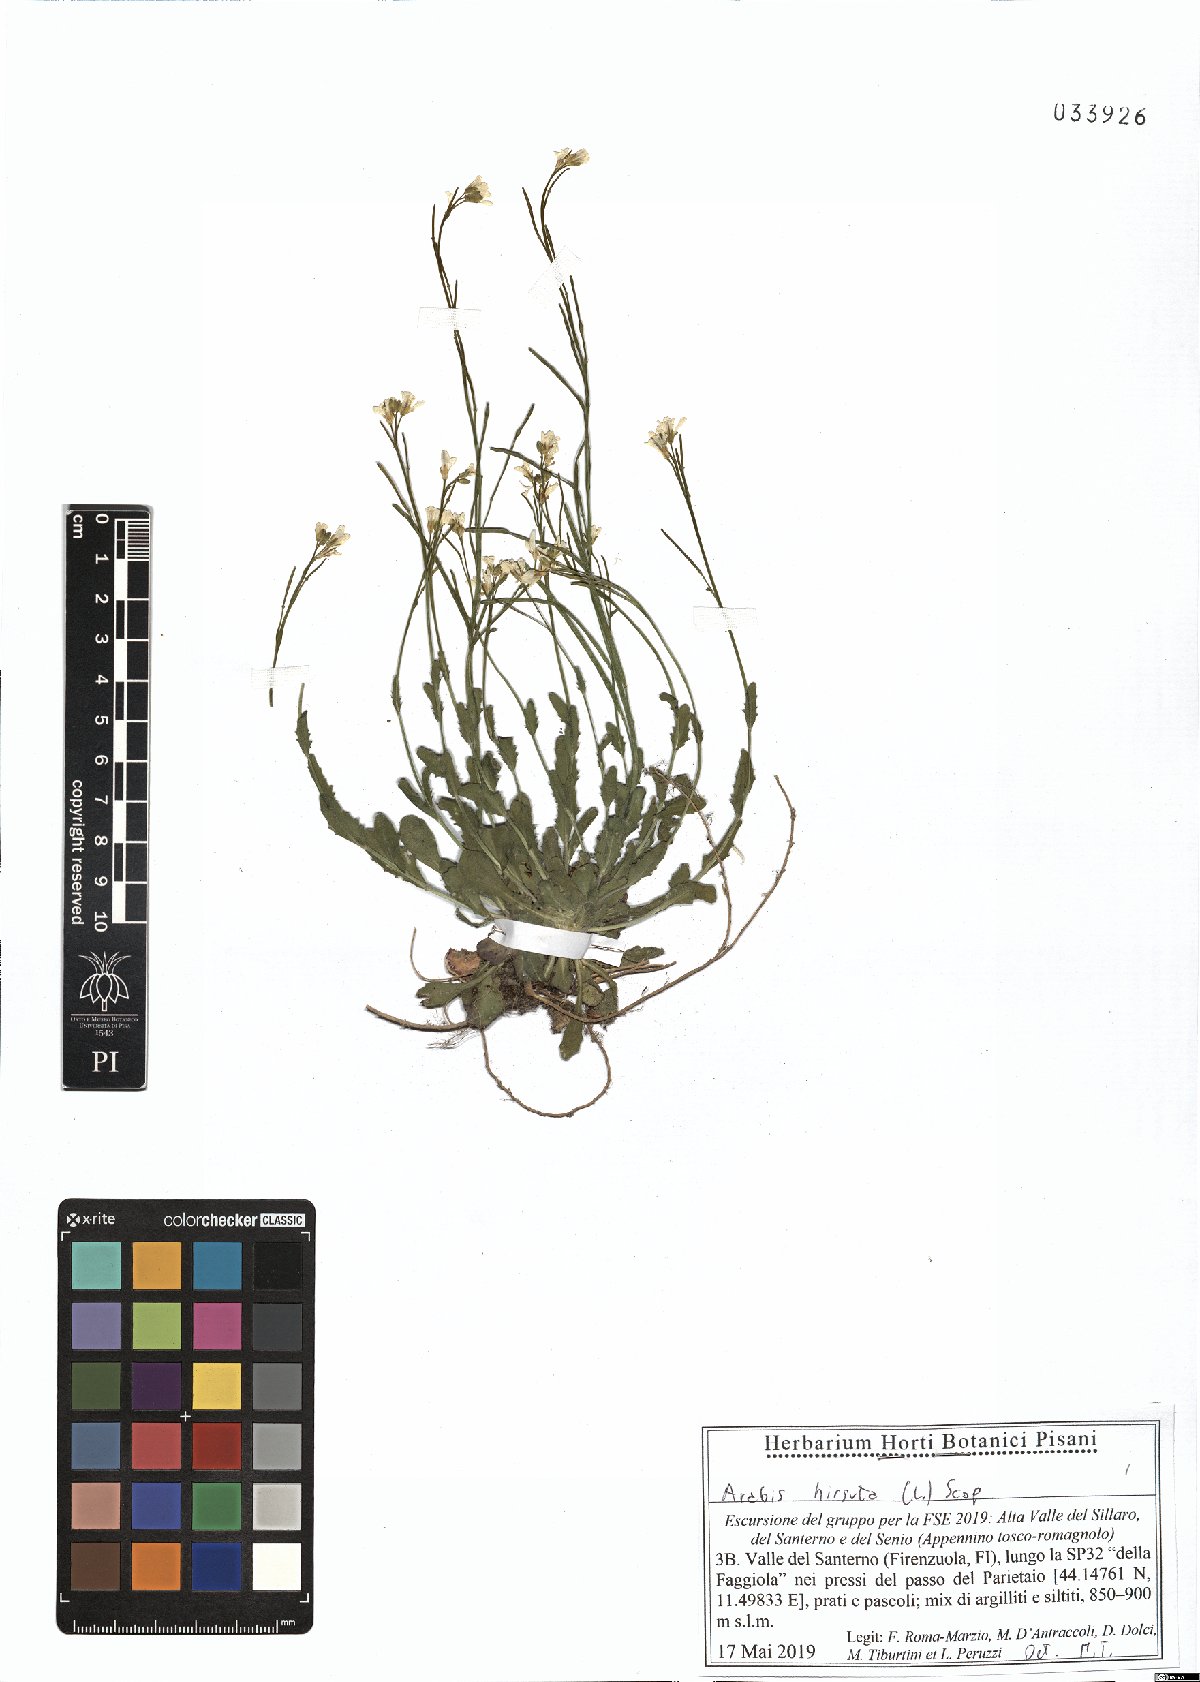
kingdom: Plantae
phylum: Tracheophyta
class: Magnoliopsida
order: Brassicales
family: Brassicaceae
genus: Arabis
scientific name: Arabis hirsuta
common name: Hairy rock-cress
